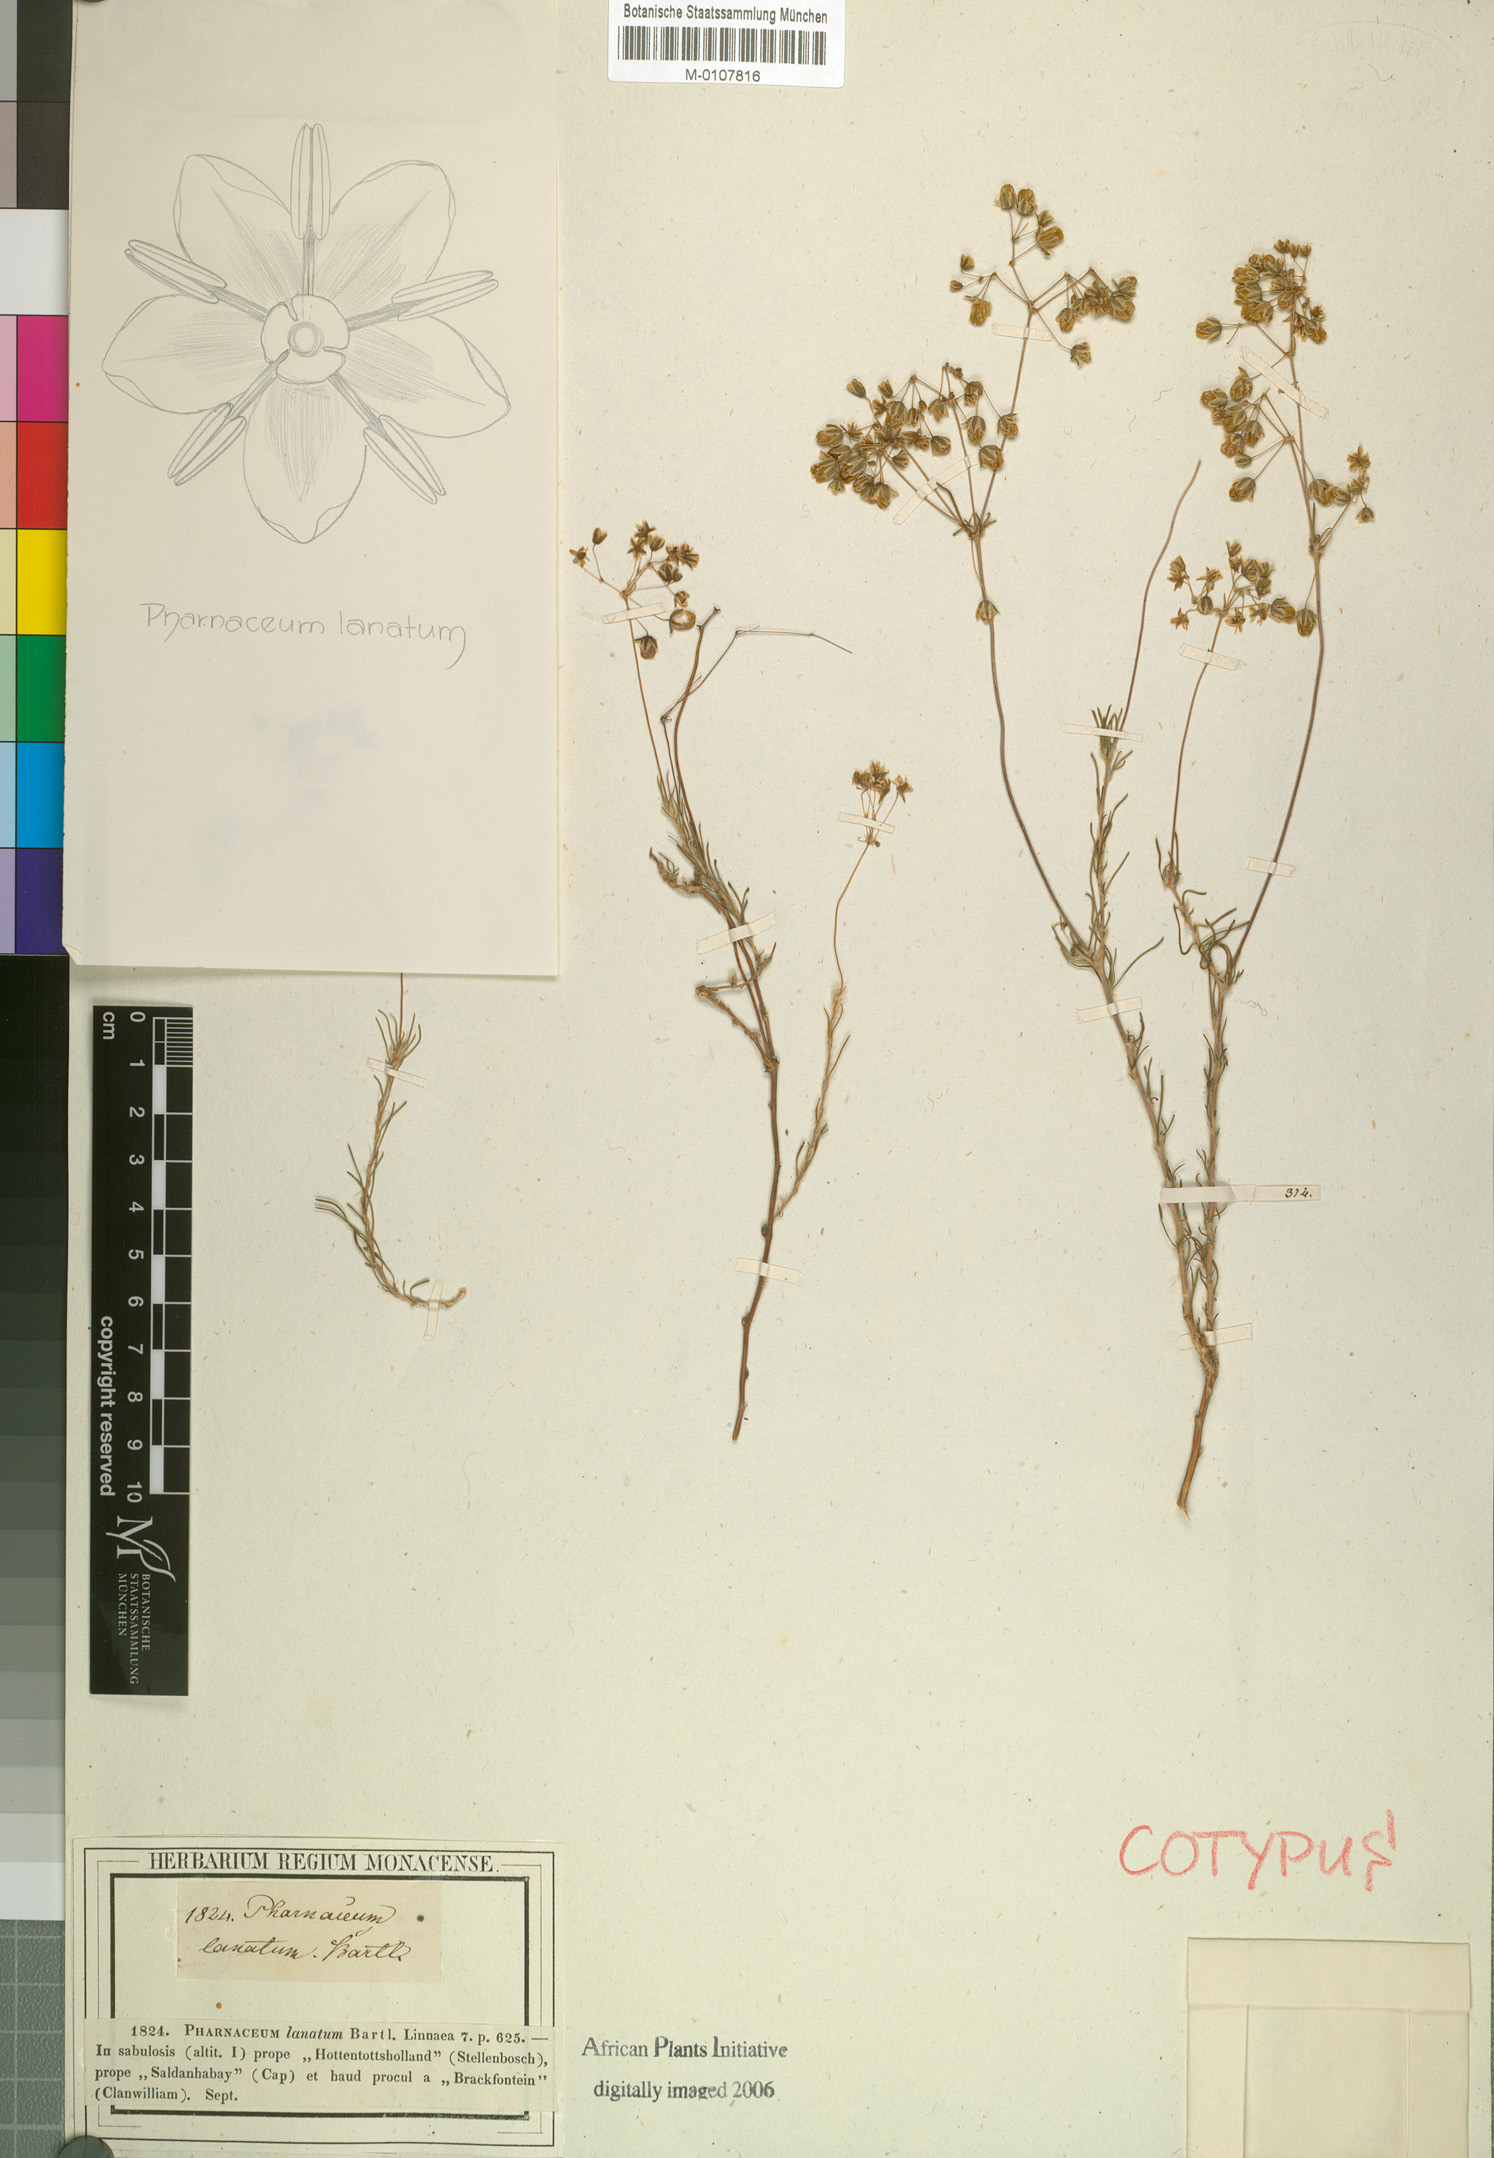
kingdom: Plantae
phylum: Tracheophyta
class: Magnoliopsida
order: Caryophyllales
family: Molluginaceae
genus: Pharnaceum
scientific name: Pharnaceum lanatum
